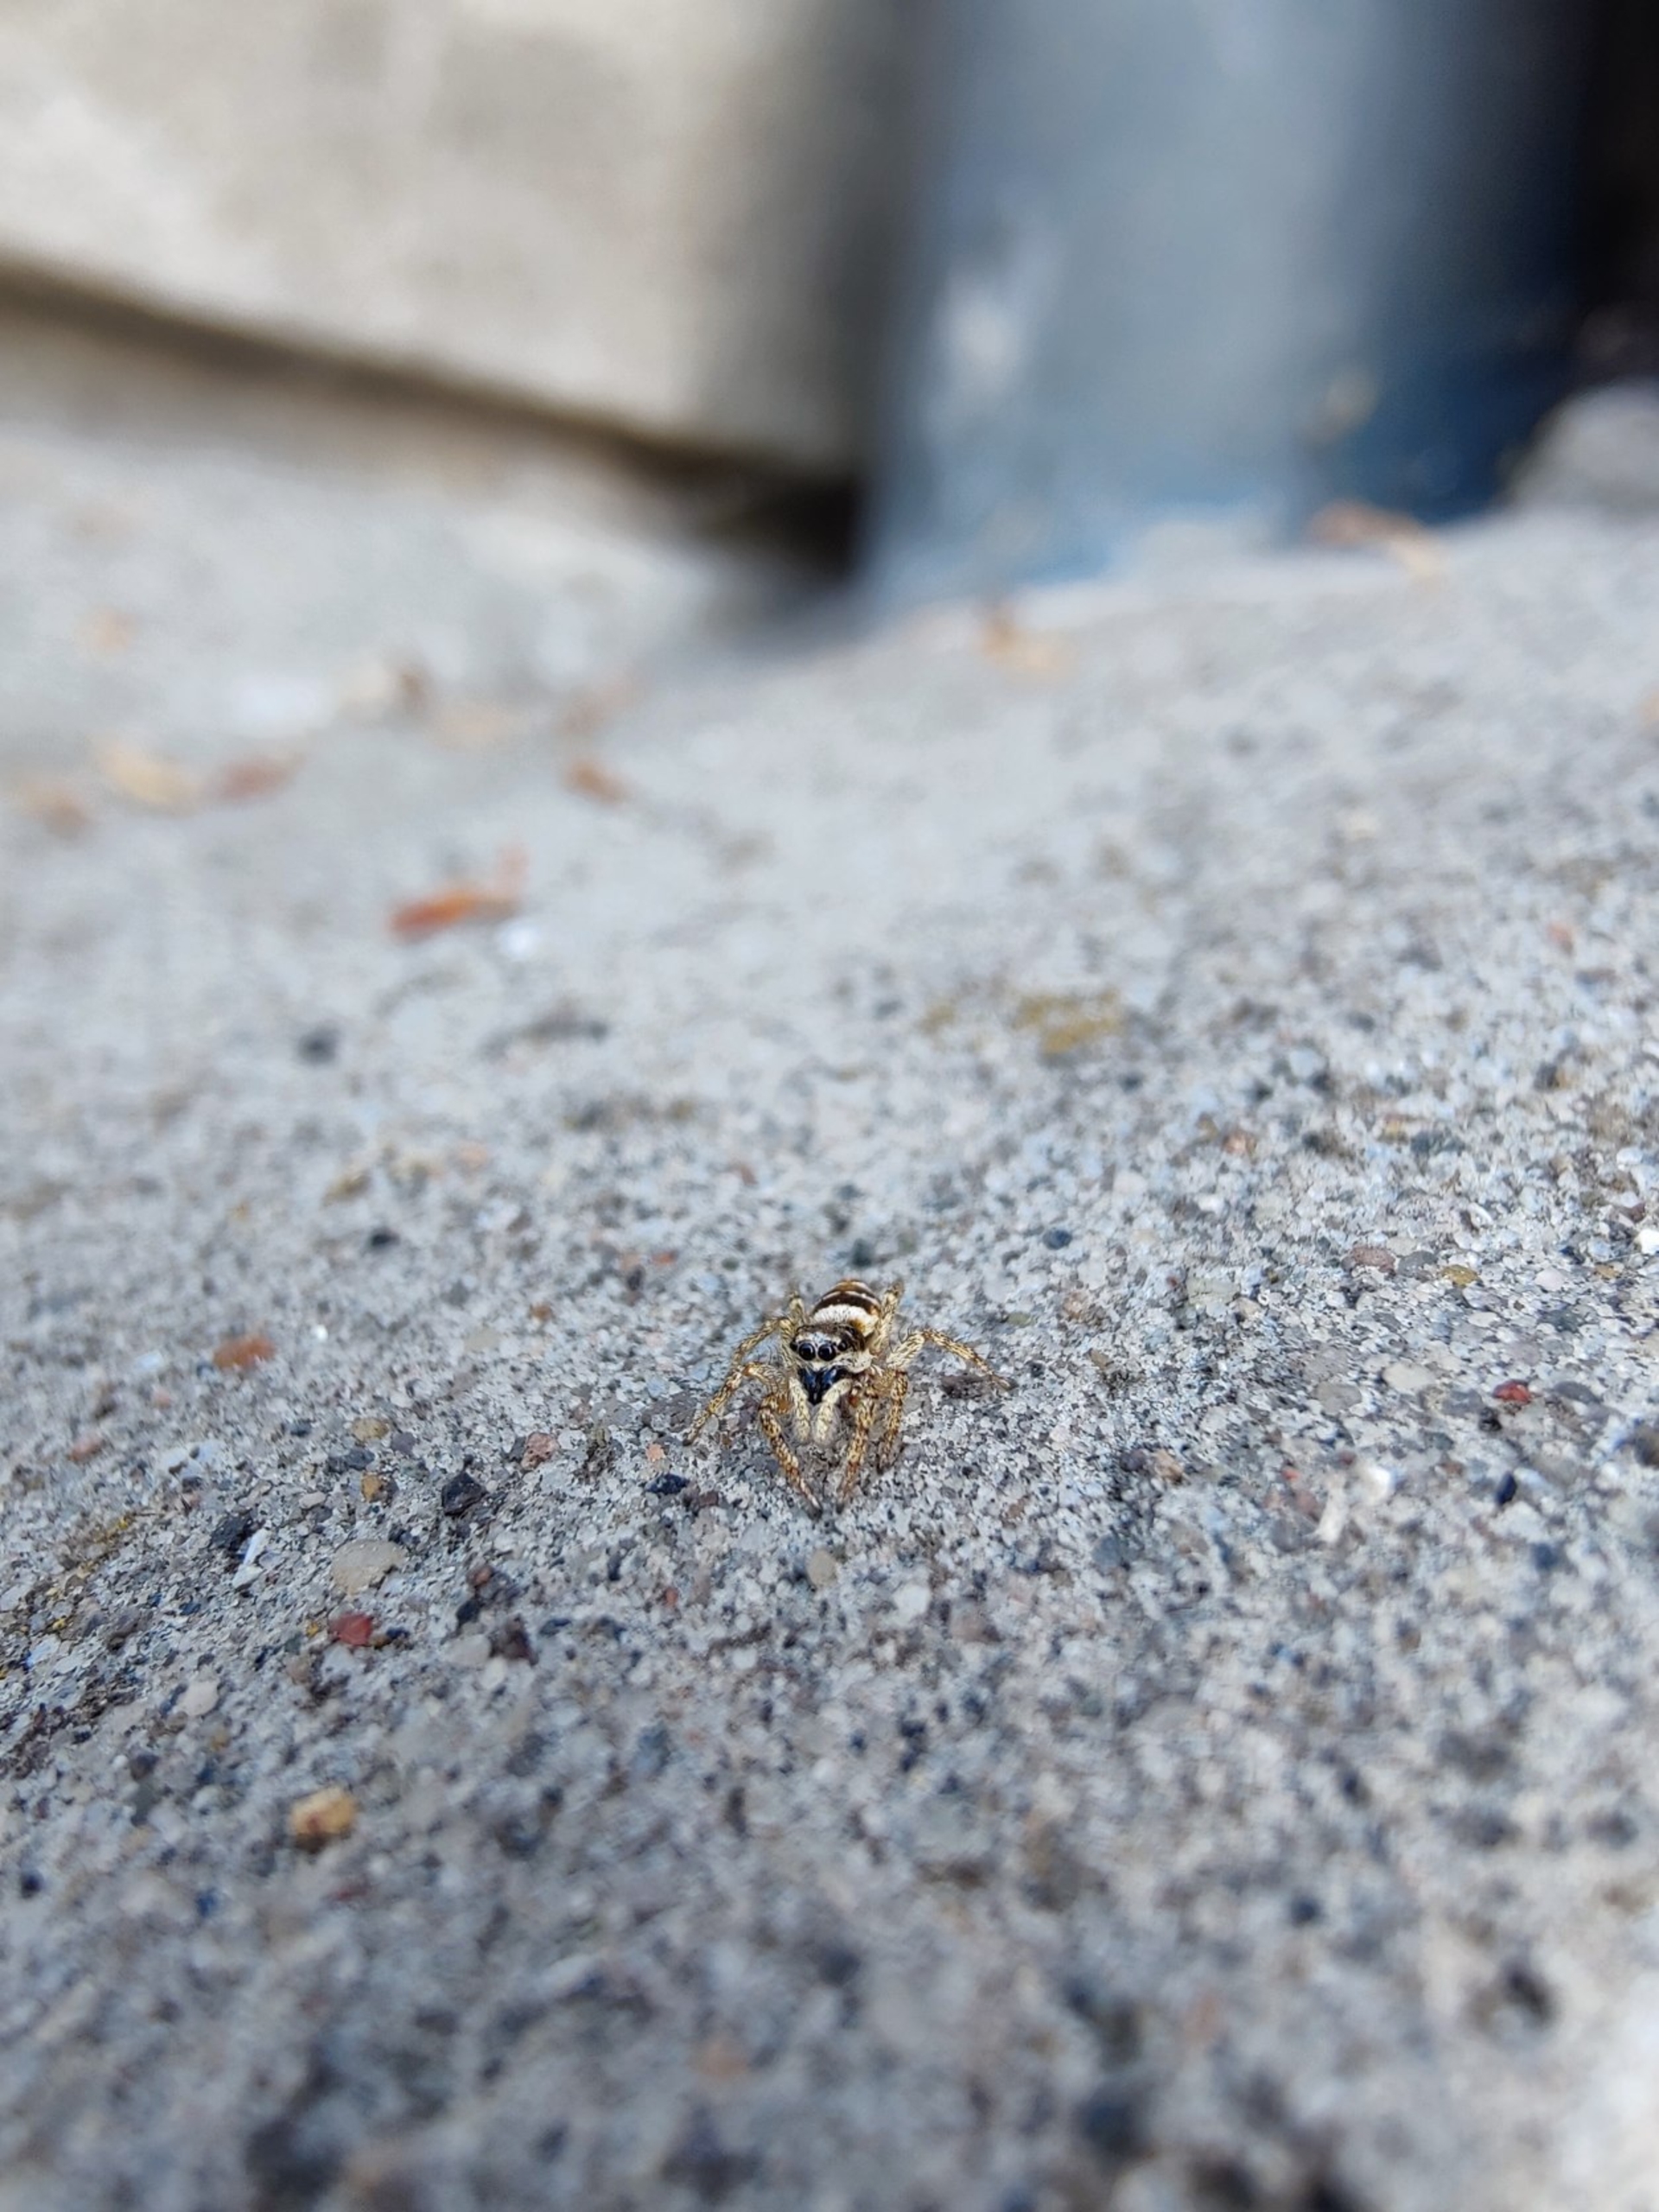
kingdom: Animalia
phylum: Arthropoda
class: Arachnida
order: Araneae
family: Salticidae
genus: Salticus
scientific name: Salticus scenicus
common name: Almindelig zebraedderkop
